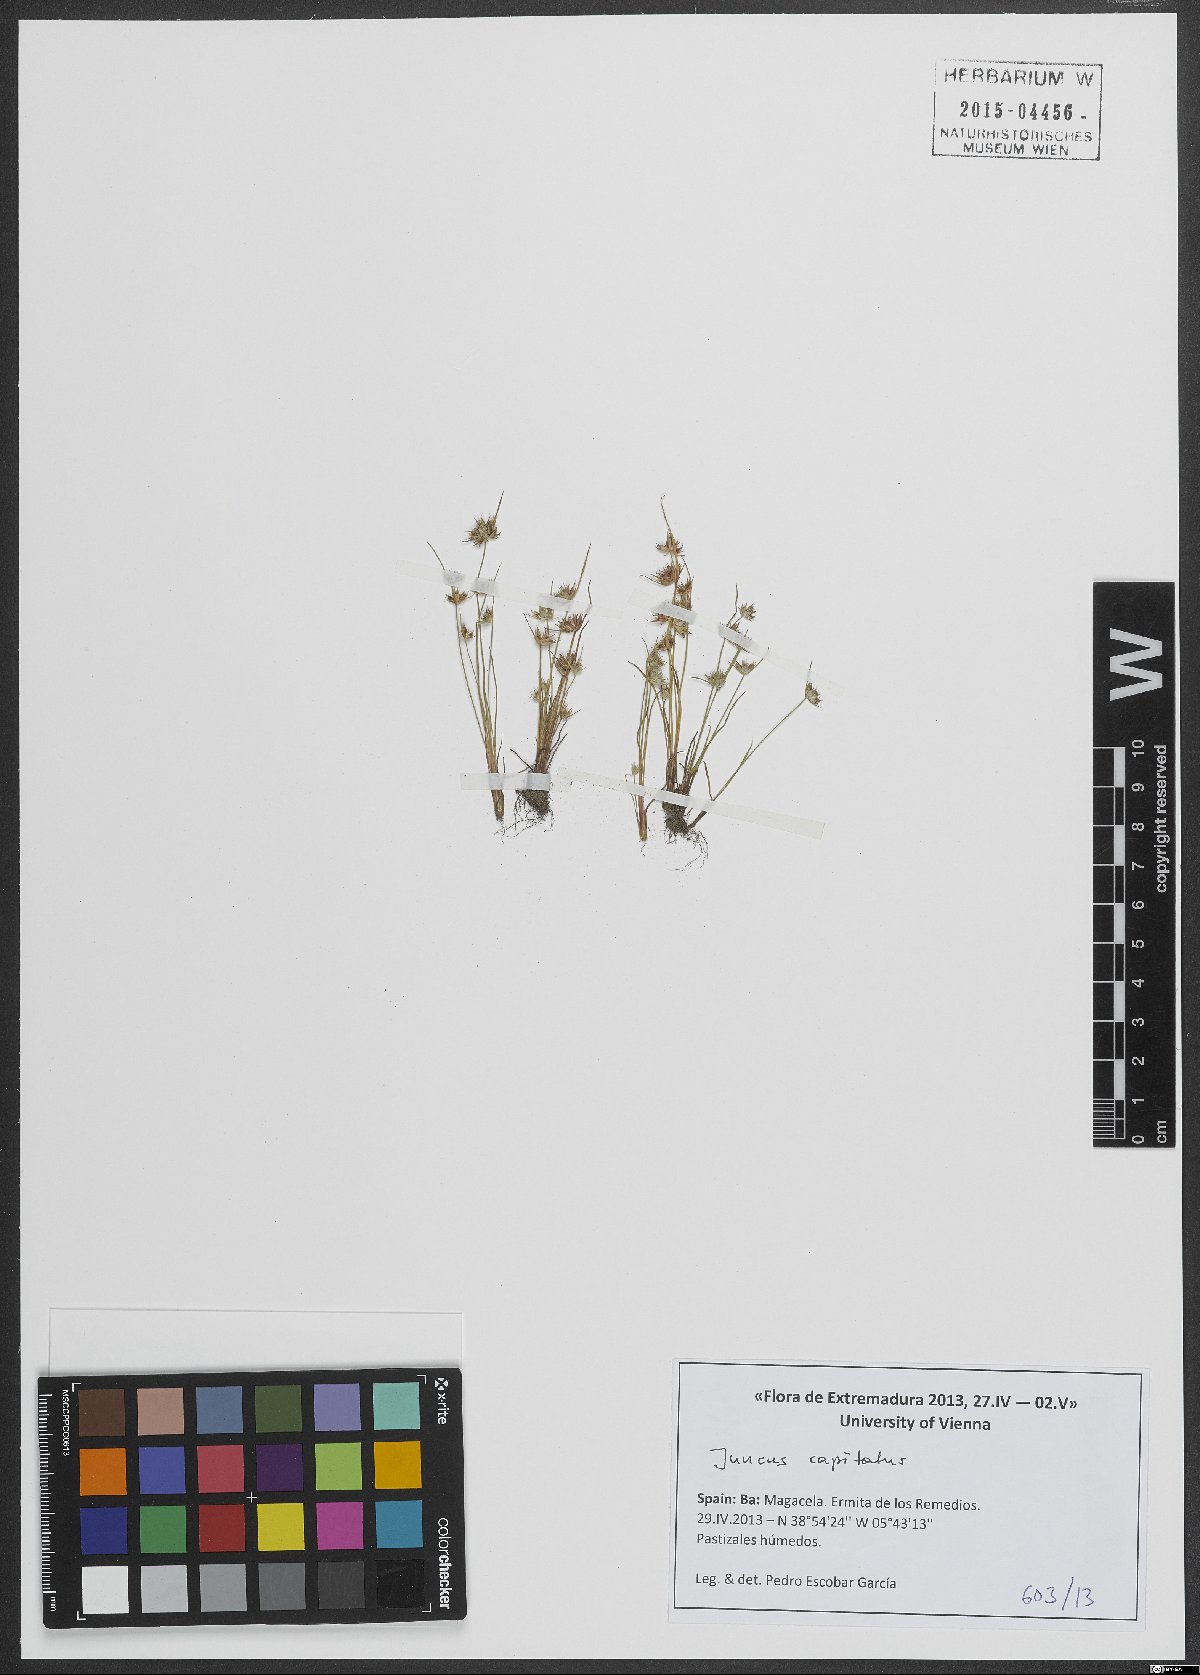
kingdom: Plantae
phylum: Tracheophyta
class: Liliopsida
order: Poales
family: Juncaceae
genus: Juncus
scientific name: Juncus capitatus
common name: Dwarf rush
